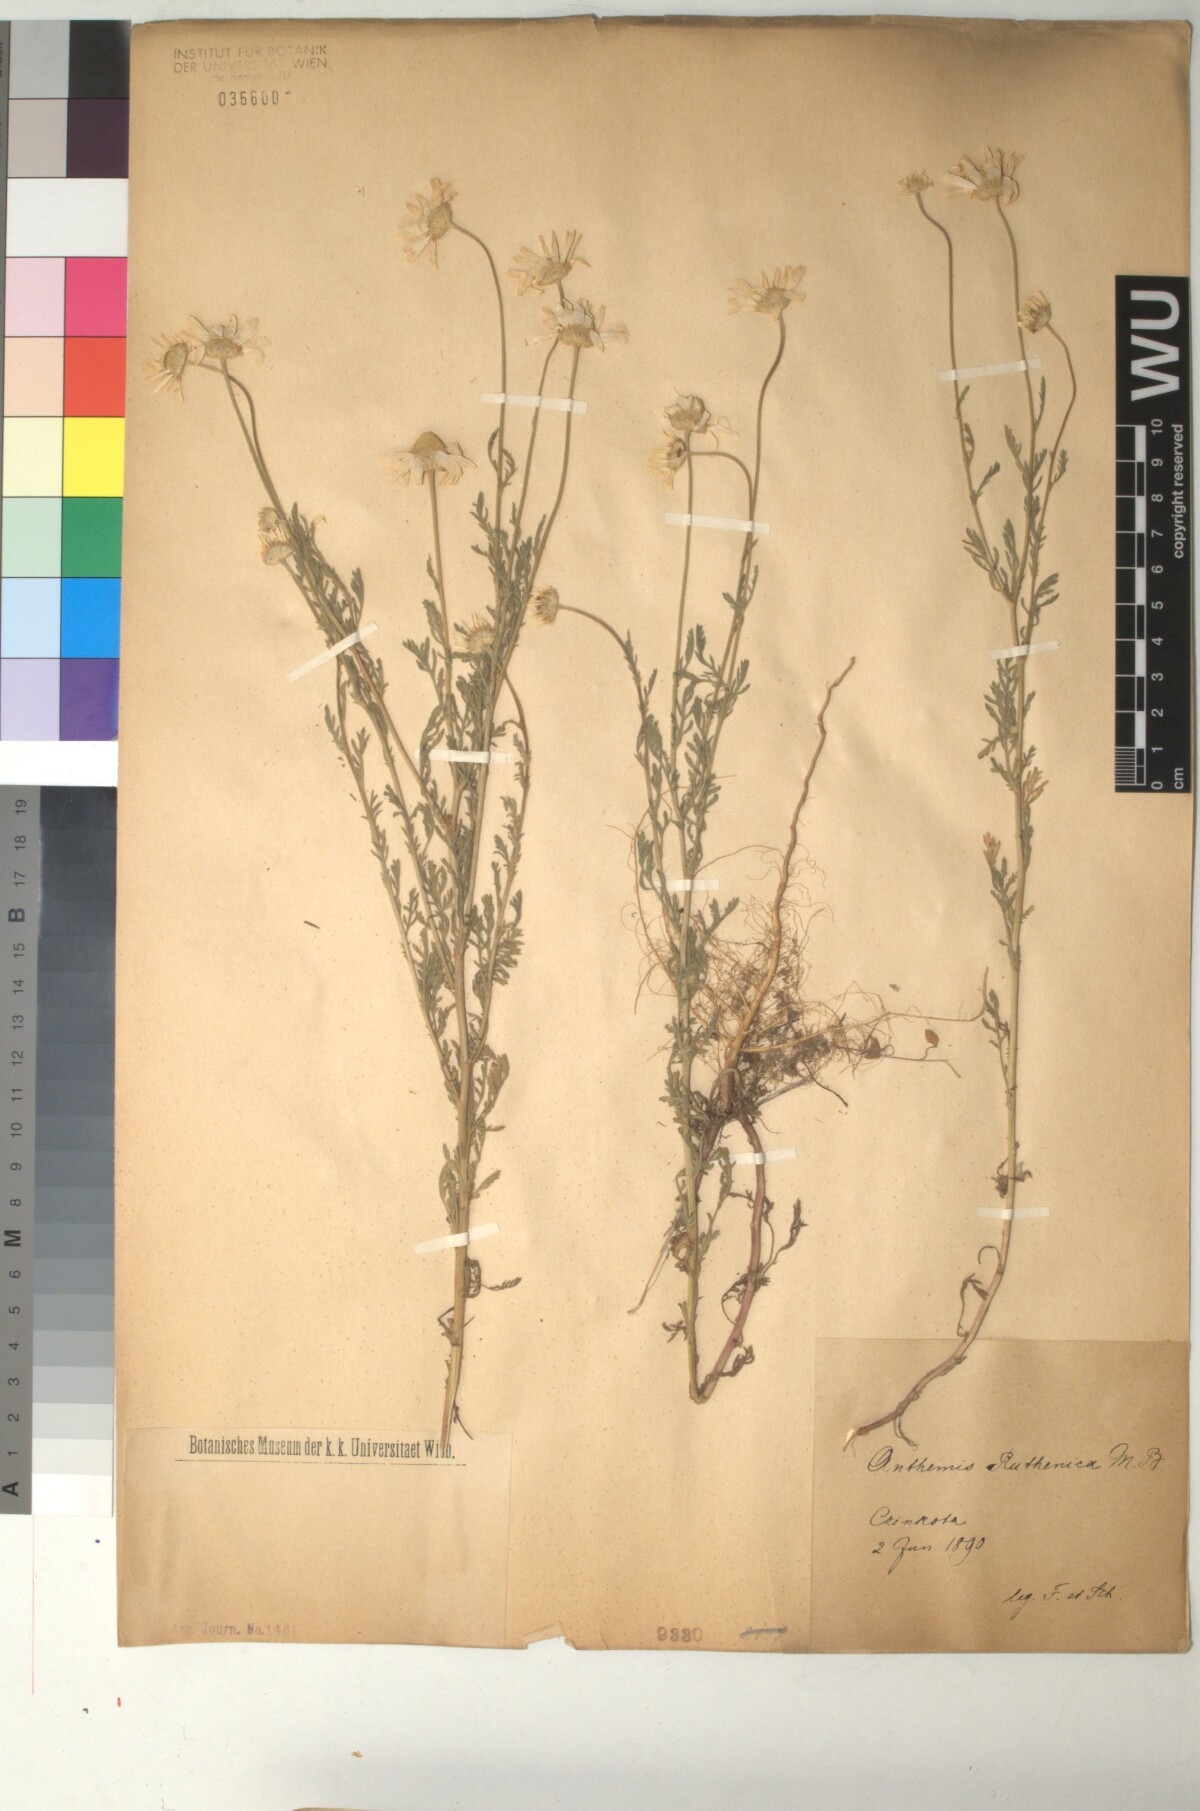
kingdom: Plantae
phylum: Tracheophyta
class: Magnoliopsida
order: Asterales
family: Asteraceae
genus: Anthemis
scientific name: Anthemis ruthenica
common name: Eastern chamomile
